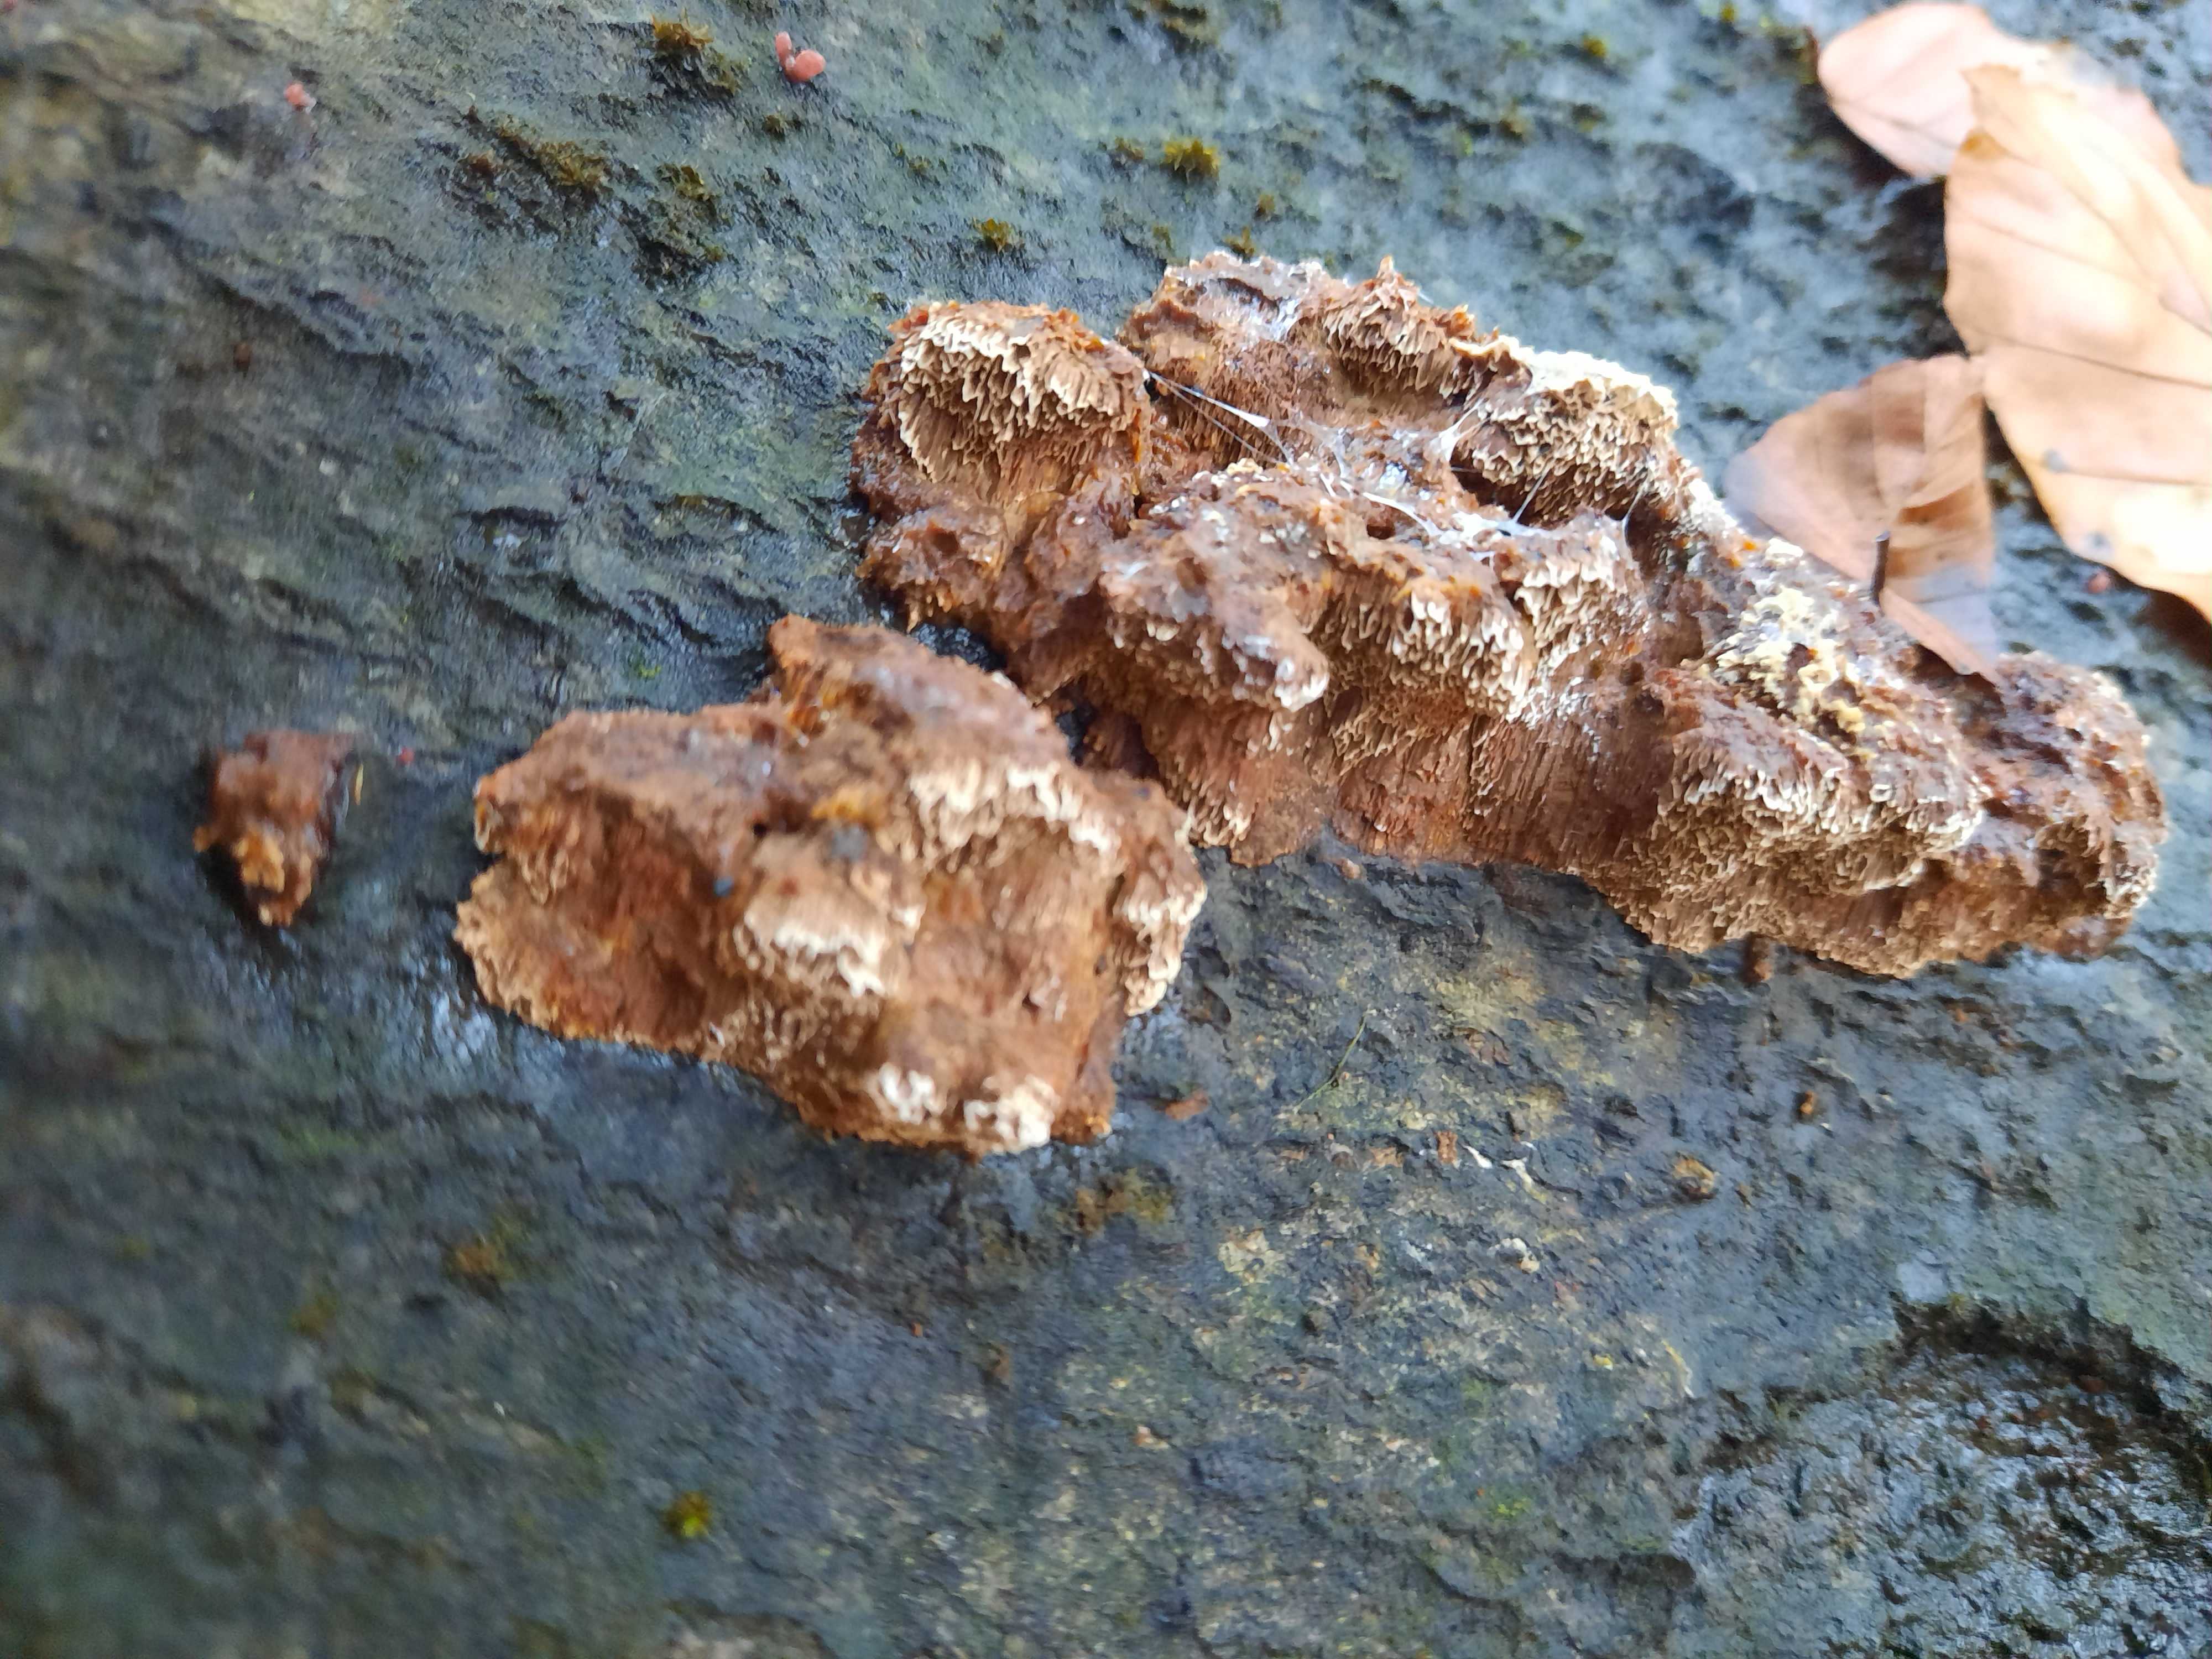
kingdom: Fungi
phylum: Basidiomycota
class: Agaricomycetes
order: Hymenochaetales
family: Hymenochaetaceae
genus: Mensularia
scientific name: Mensularia nodulosa
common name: bøge-spejlporesvamp
